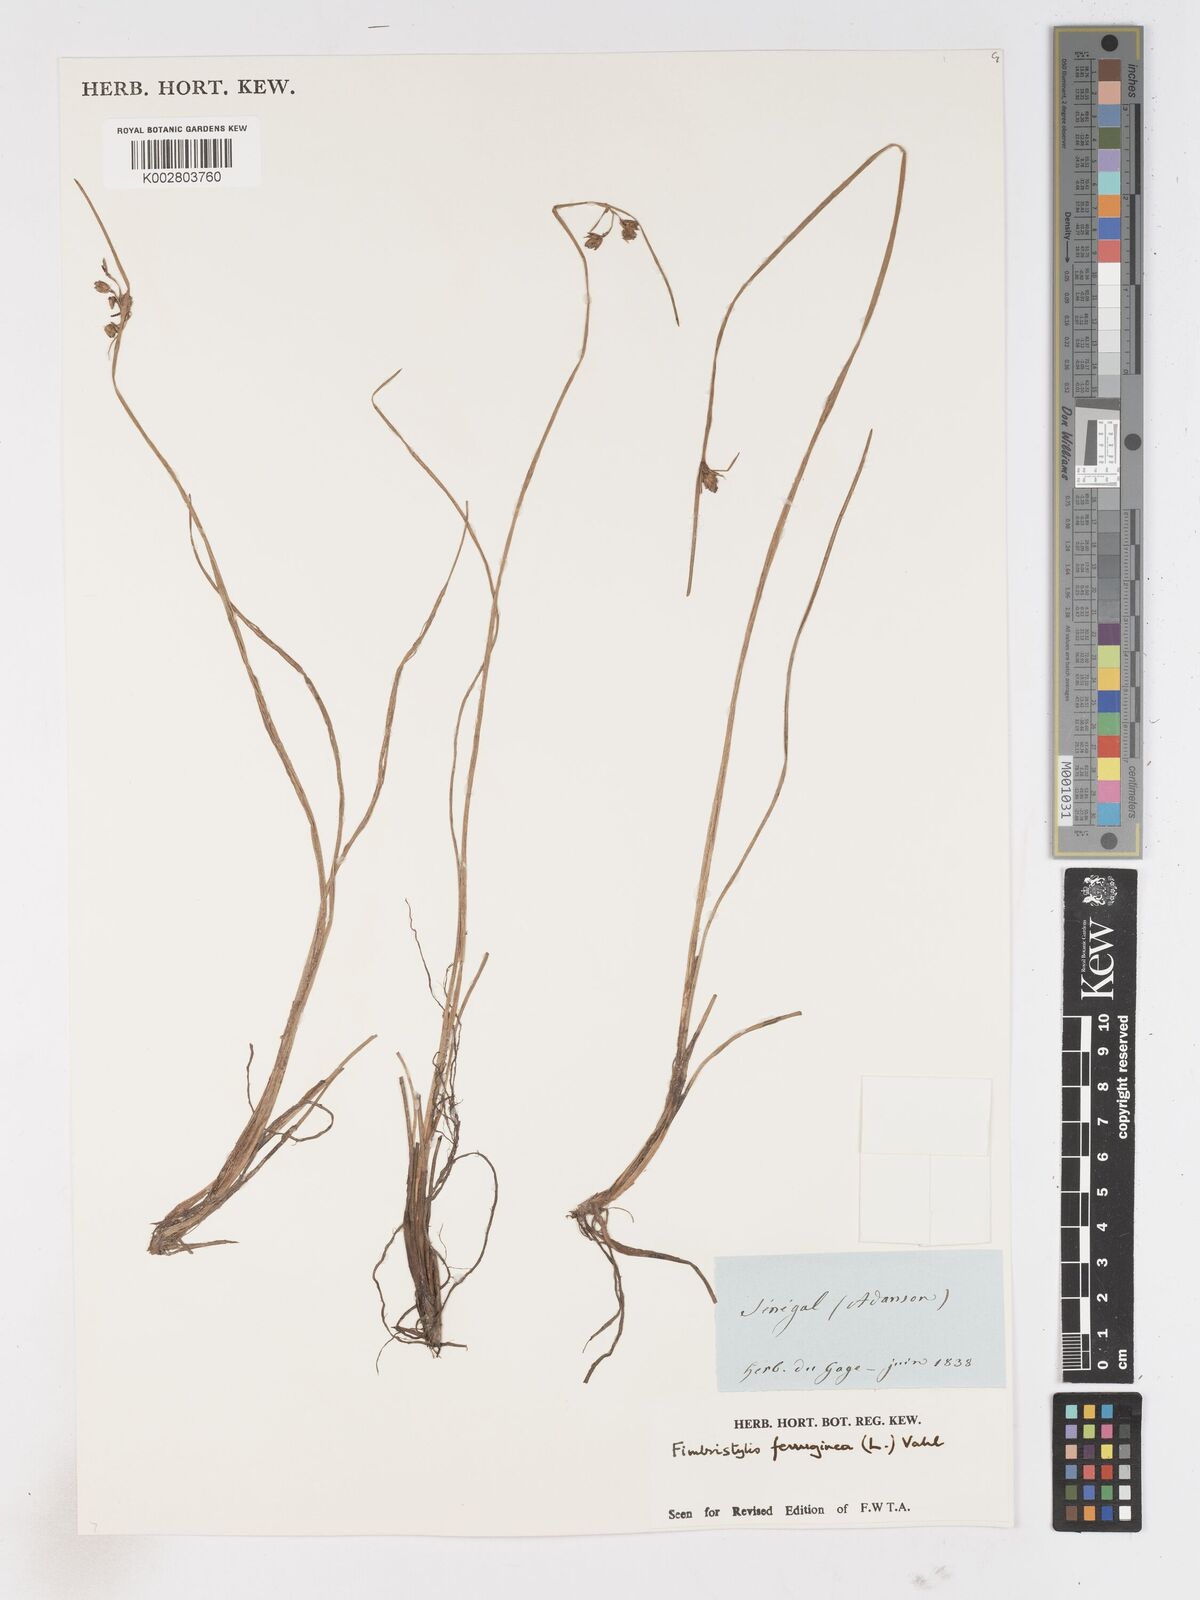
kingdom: Plantae
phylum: Tracheophyta
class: Liliopsida
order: Poales
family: Cyperaceae
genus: Fimbristylis
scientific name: Fimbristylis ferruginea
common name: West indian fimbry
